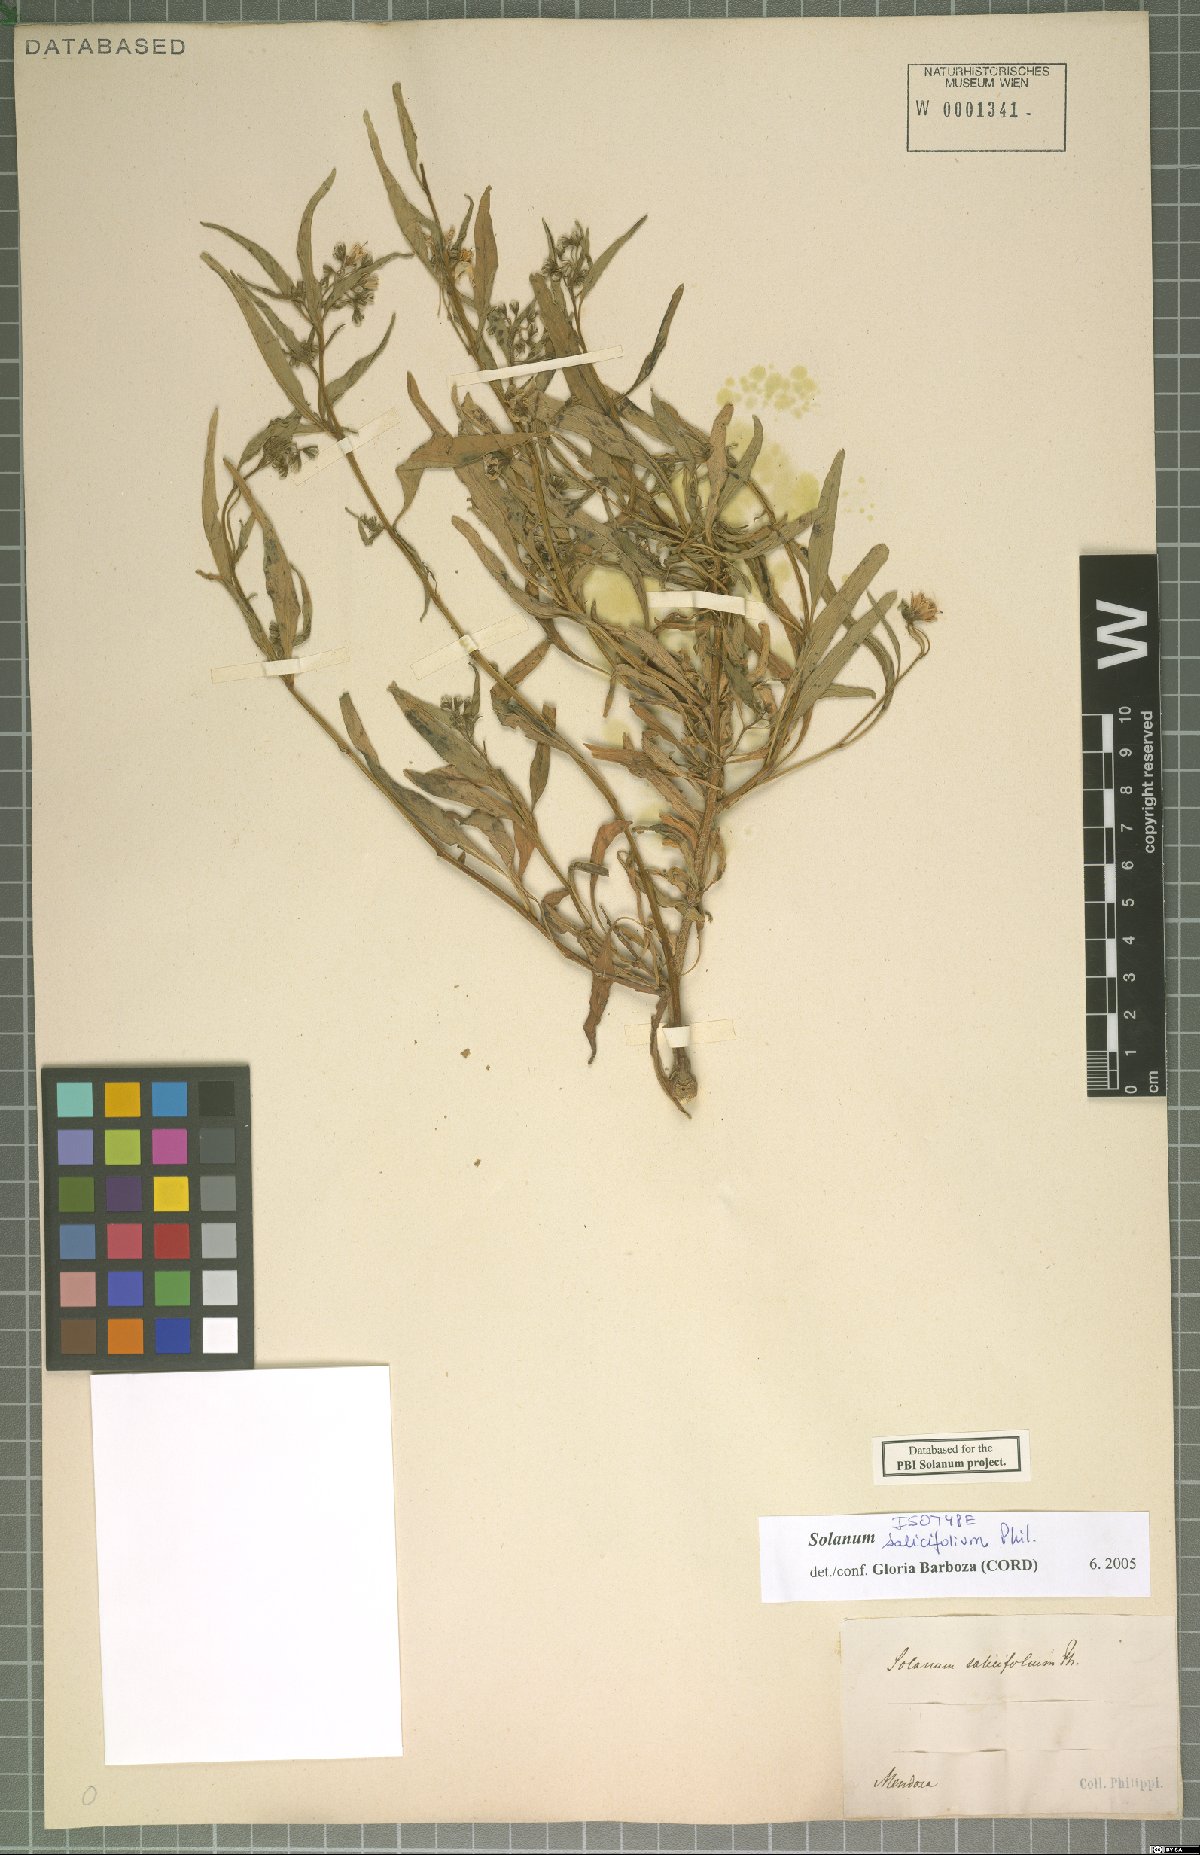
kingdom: Plantae
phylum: Tracheophyta
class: Magnoliopsida
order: Solanales
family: Solanaceae
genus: Solanum
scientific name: Solanum salicifolium
